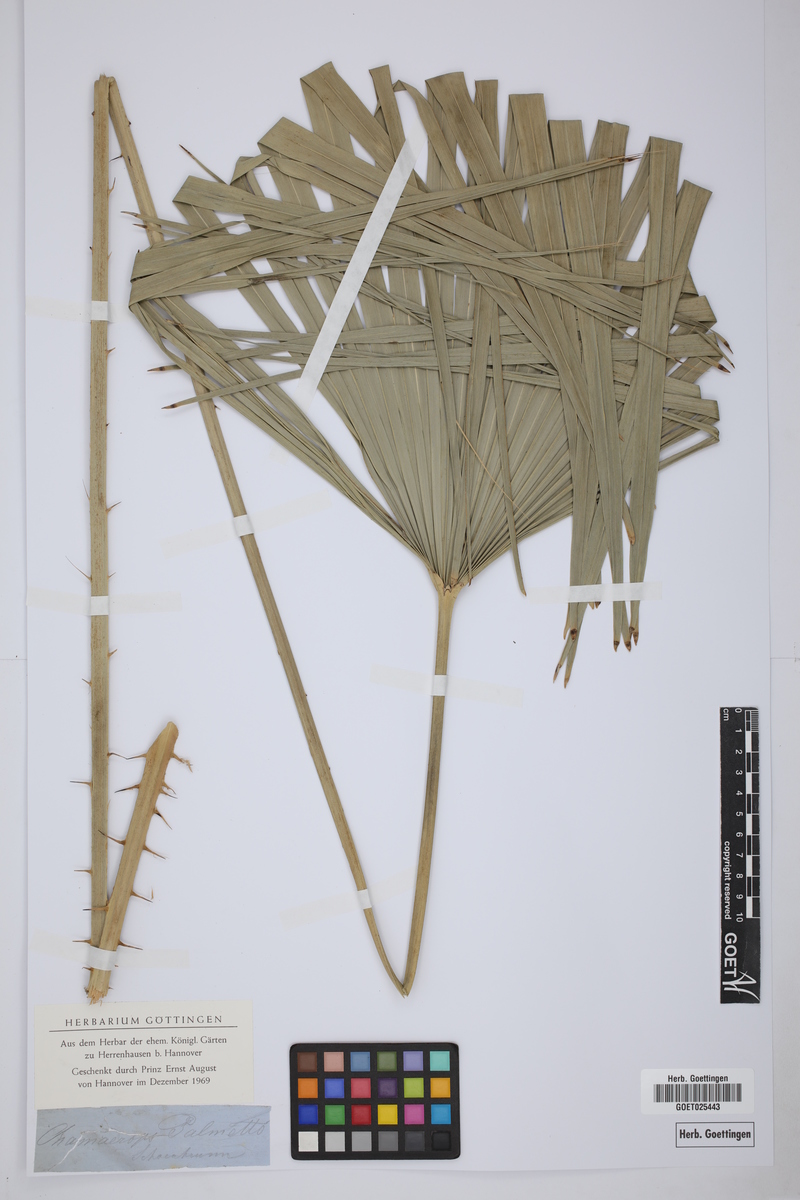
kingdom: Plantae
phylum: Tracheophyta
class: Liliopsida
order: Arecales
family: Arecaceae
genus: Sabal
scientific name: Sabal palmetto
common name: Blue palmetto
